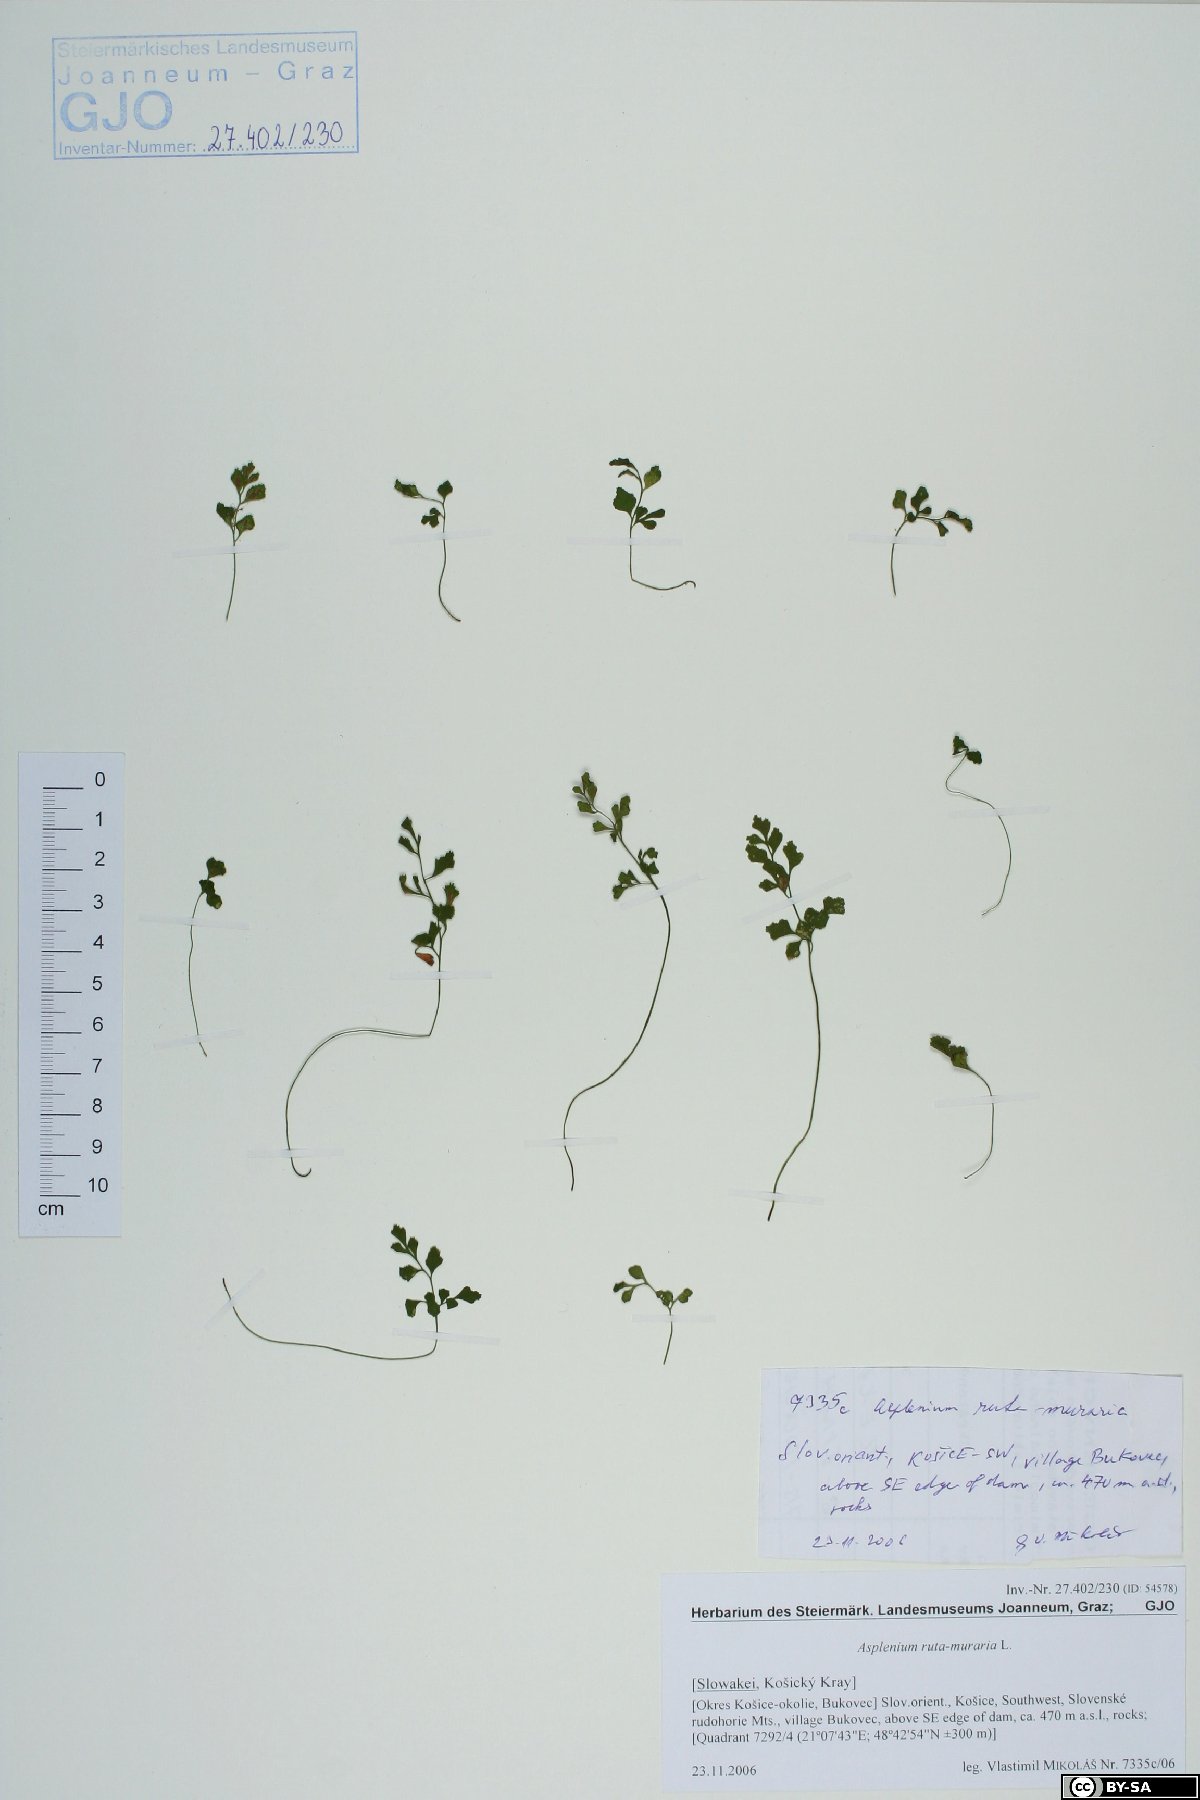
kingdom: Plantae
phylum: Tracheophyta
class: Polypodiopsida
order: Polypodiales
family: Aspleniaceae
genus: Asplenium
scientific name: Asplenium ruta-muraria
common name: Wall-rue
